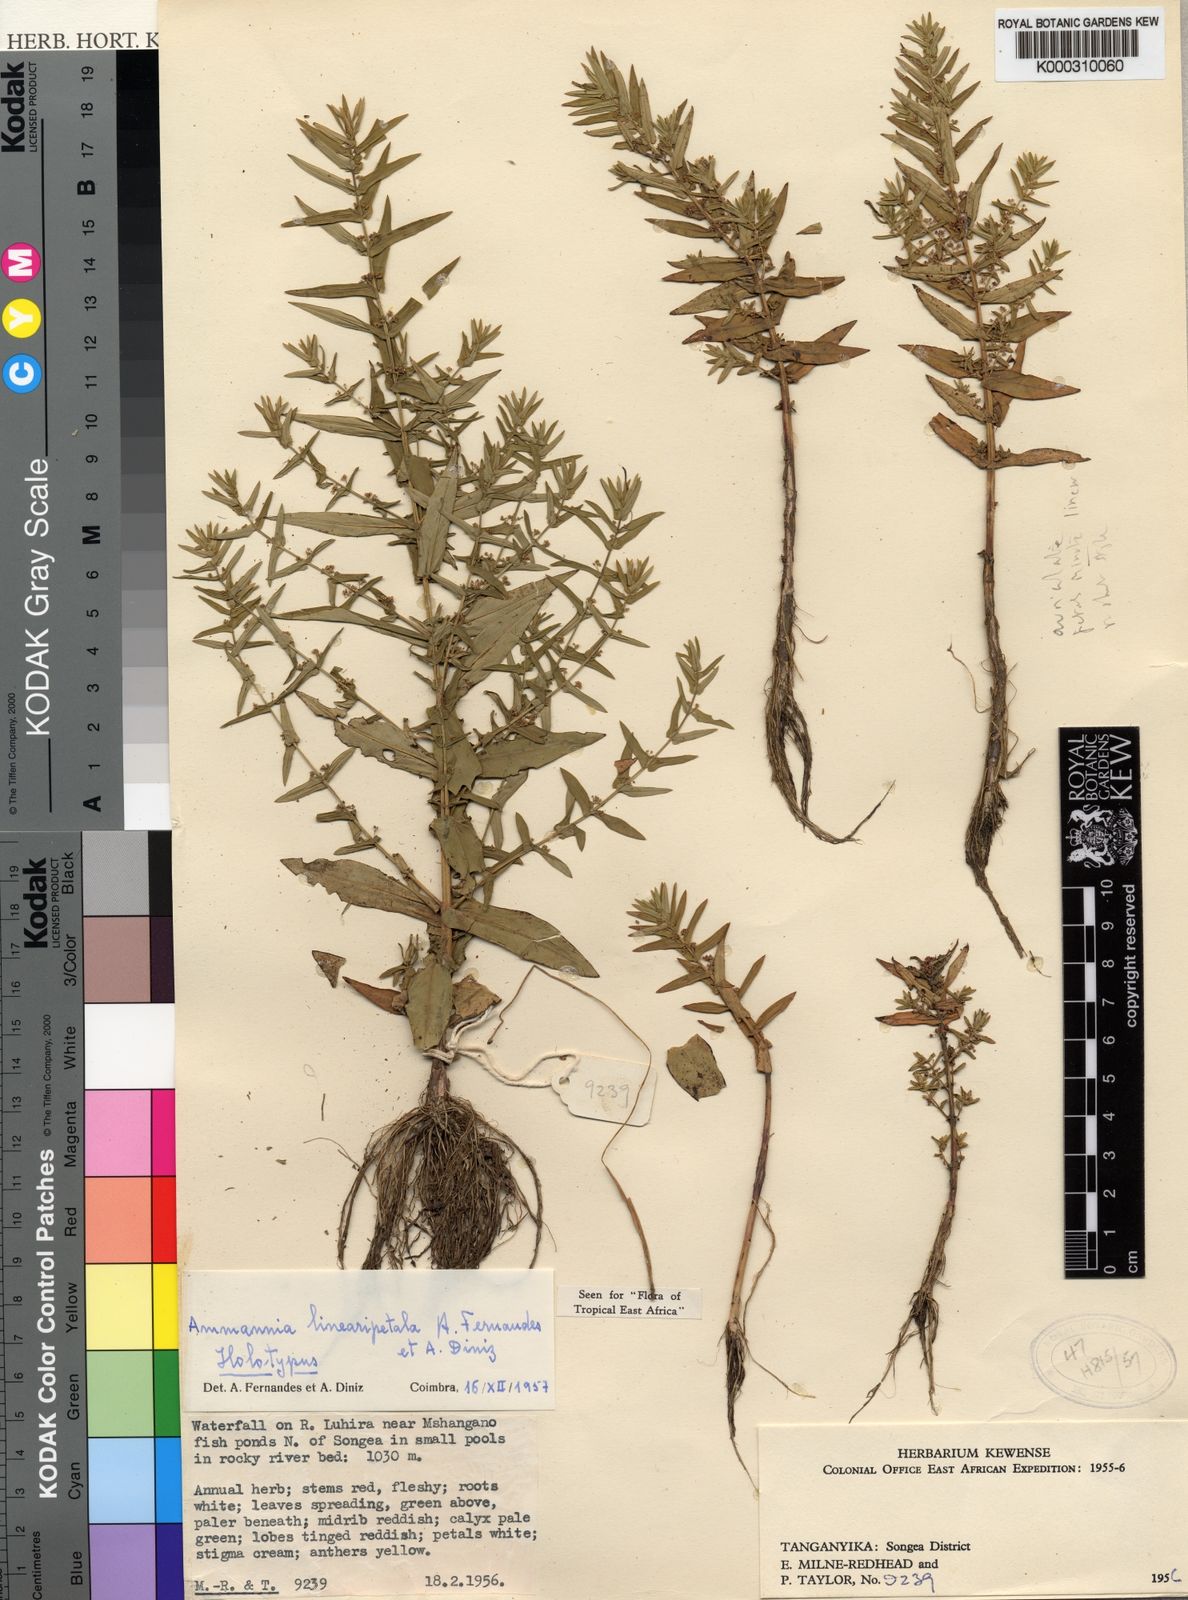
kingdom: Plantae
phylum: Tracheophyta
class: Magnoliopsida
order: Myrtales
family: Lythraceae
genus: Ammannia
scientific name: Ammannia linearipetala
